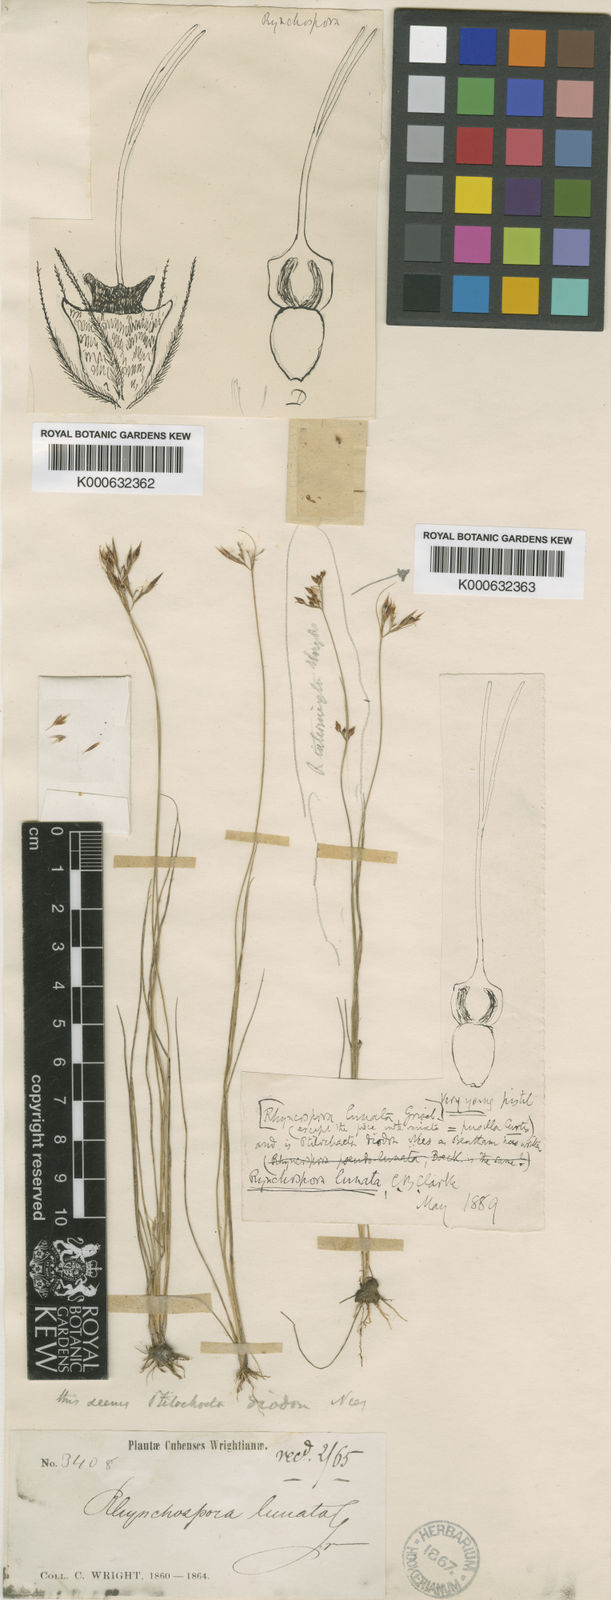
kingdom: Plantae
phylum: Tracheophyta
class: Liliopsida
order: Poales
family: Cyperaceae
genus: Rhynchospora
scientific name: Rhynchospora diodon
